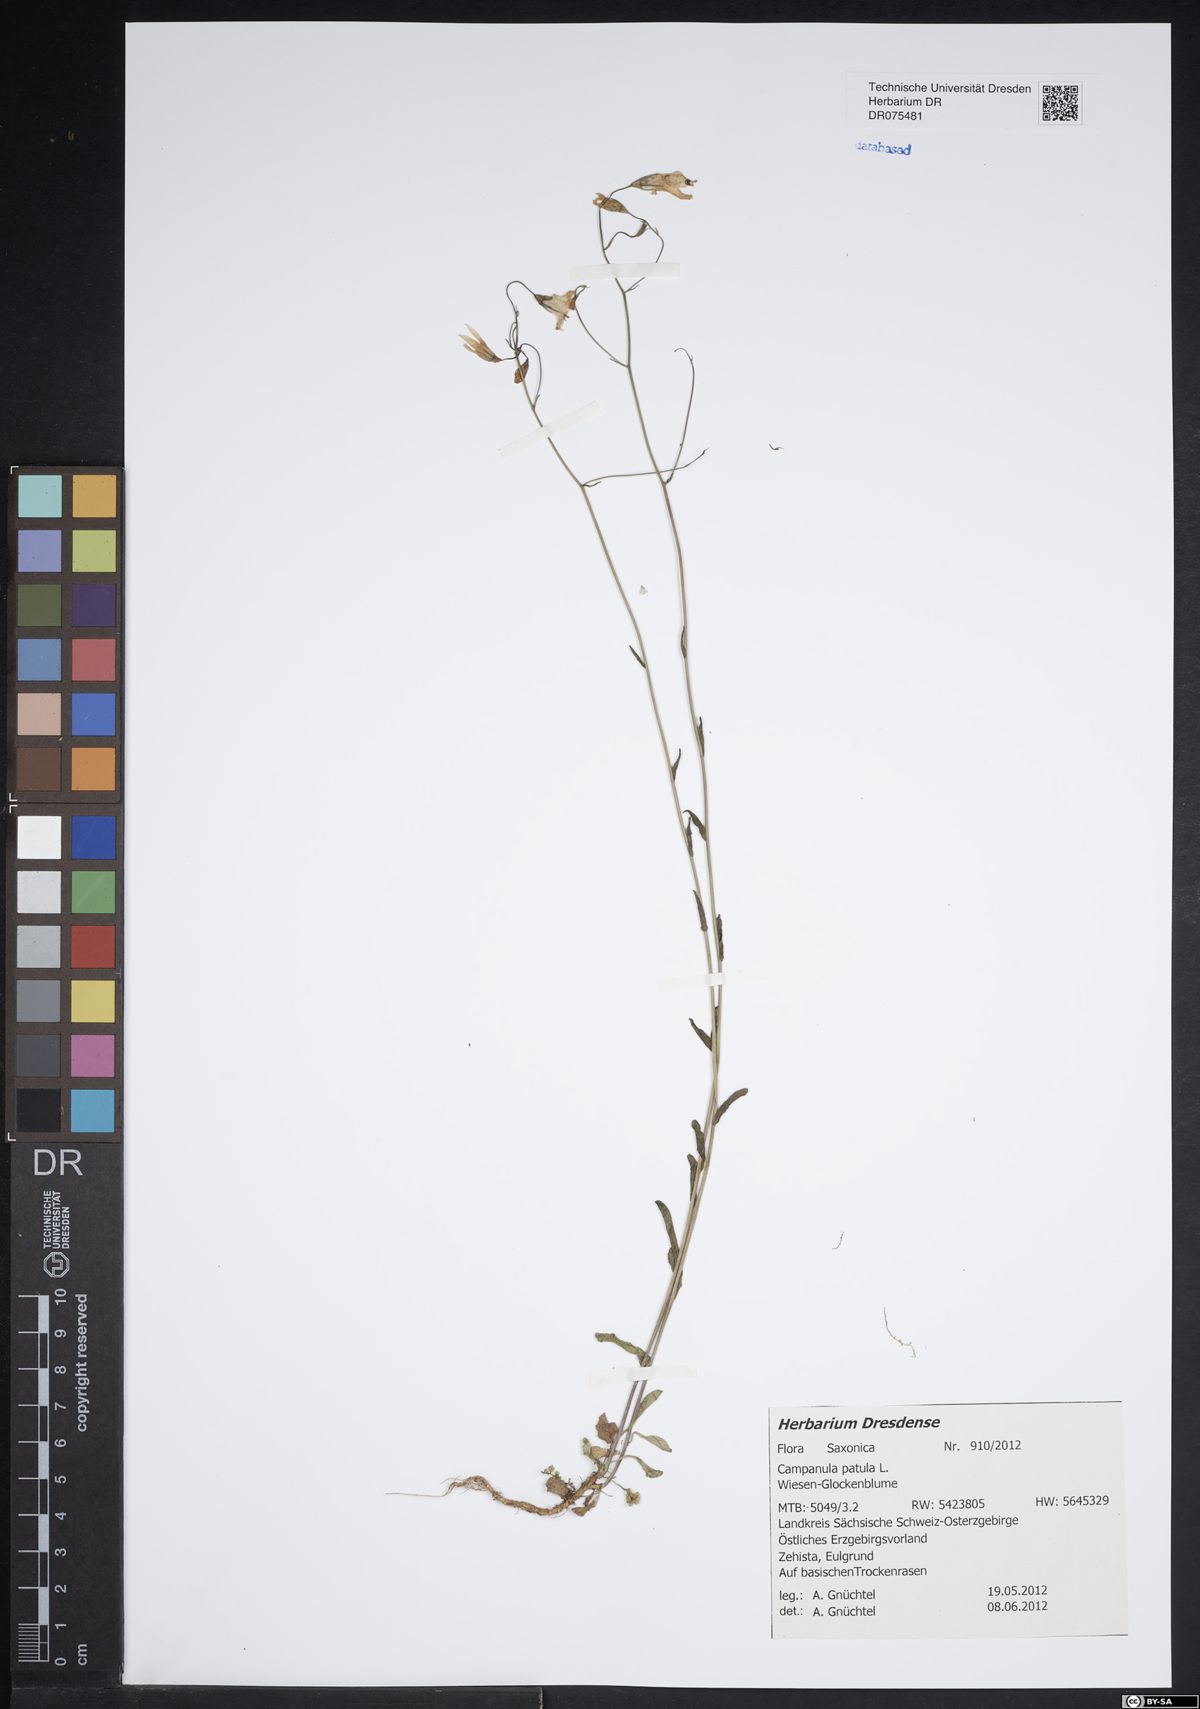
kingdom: Plantae
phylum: Tracheophyta
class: Magnoliopsida
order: Asterales
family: Campanulaceae
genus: Campanula
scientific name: Campanula patula
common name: Spreading bellflower
